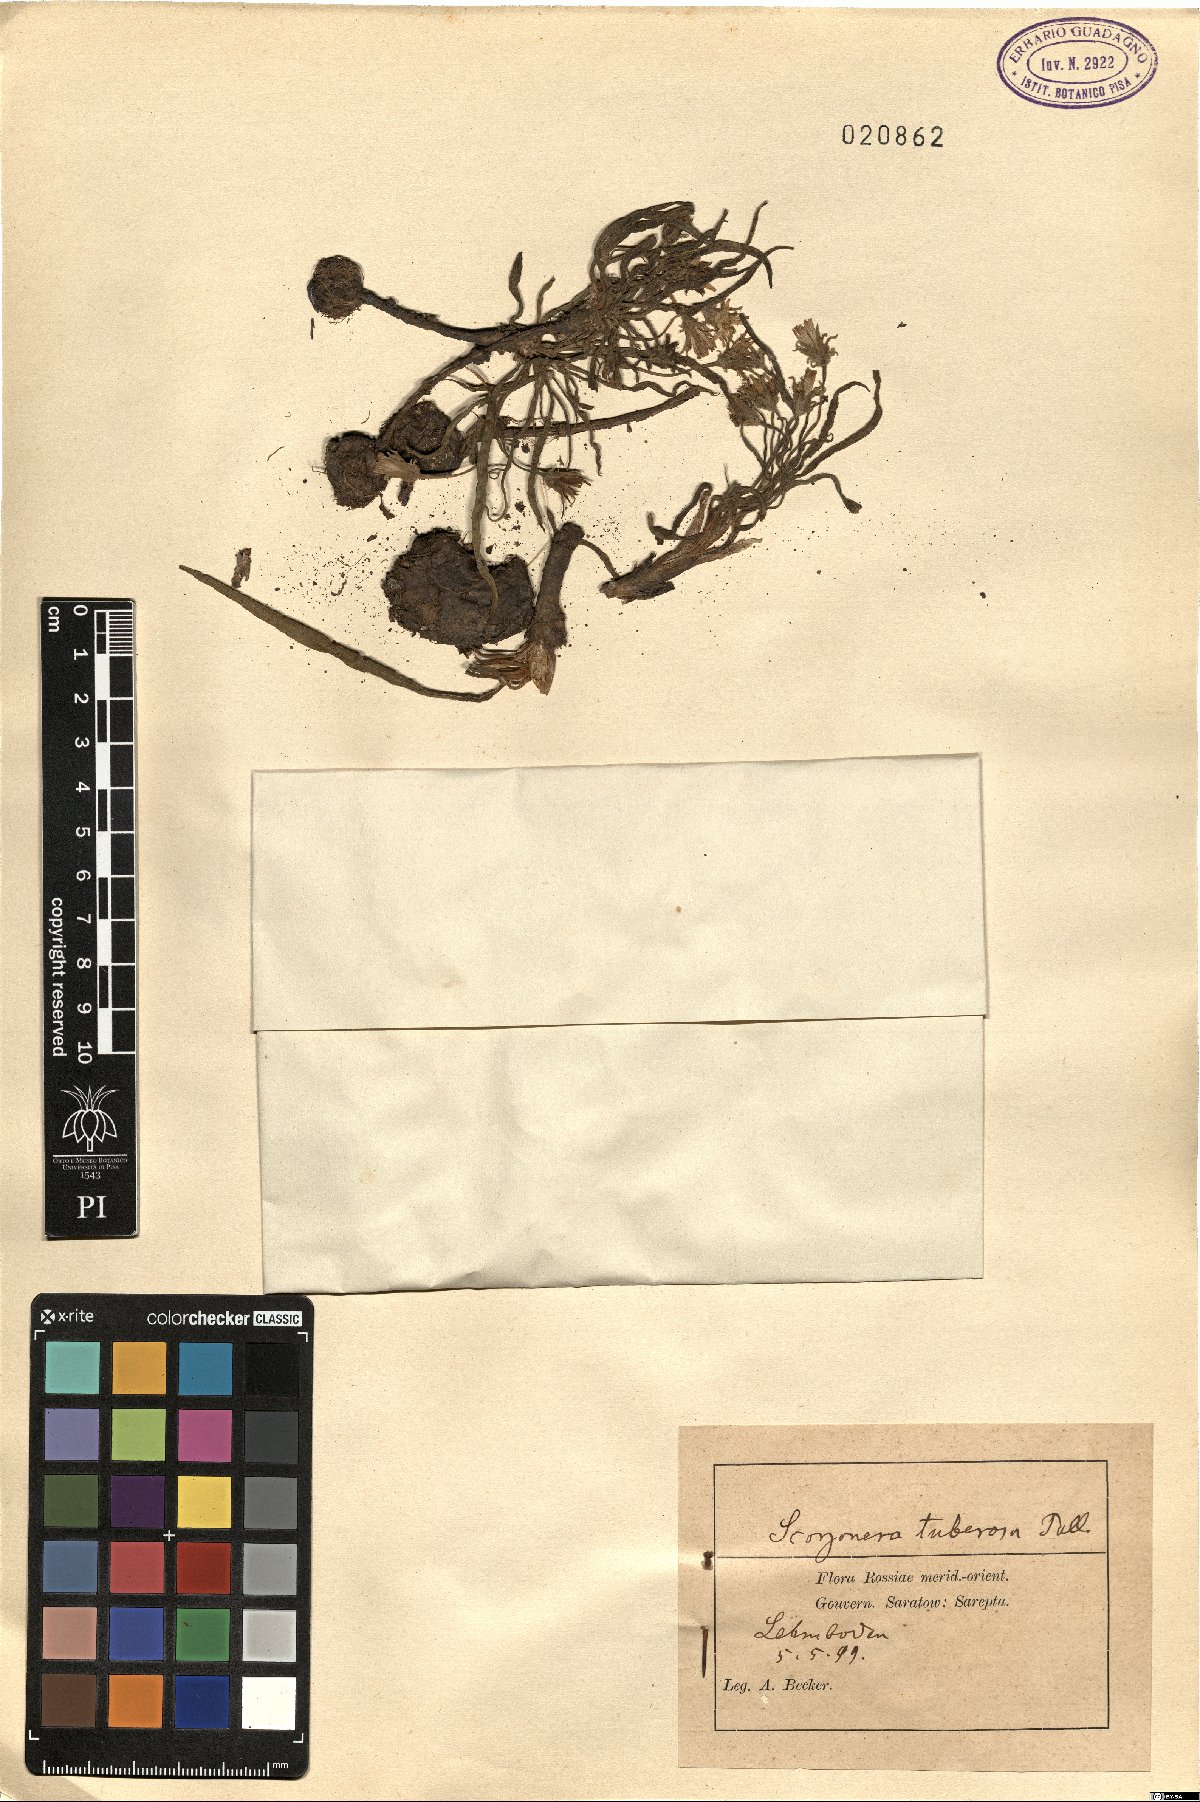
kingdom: Plantae
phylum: Tracheophyta
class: Magnoliopsida
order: Asterales
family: Asteraceae
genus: Gelasia
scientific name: Gelasia tuberosa
